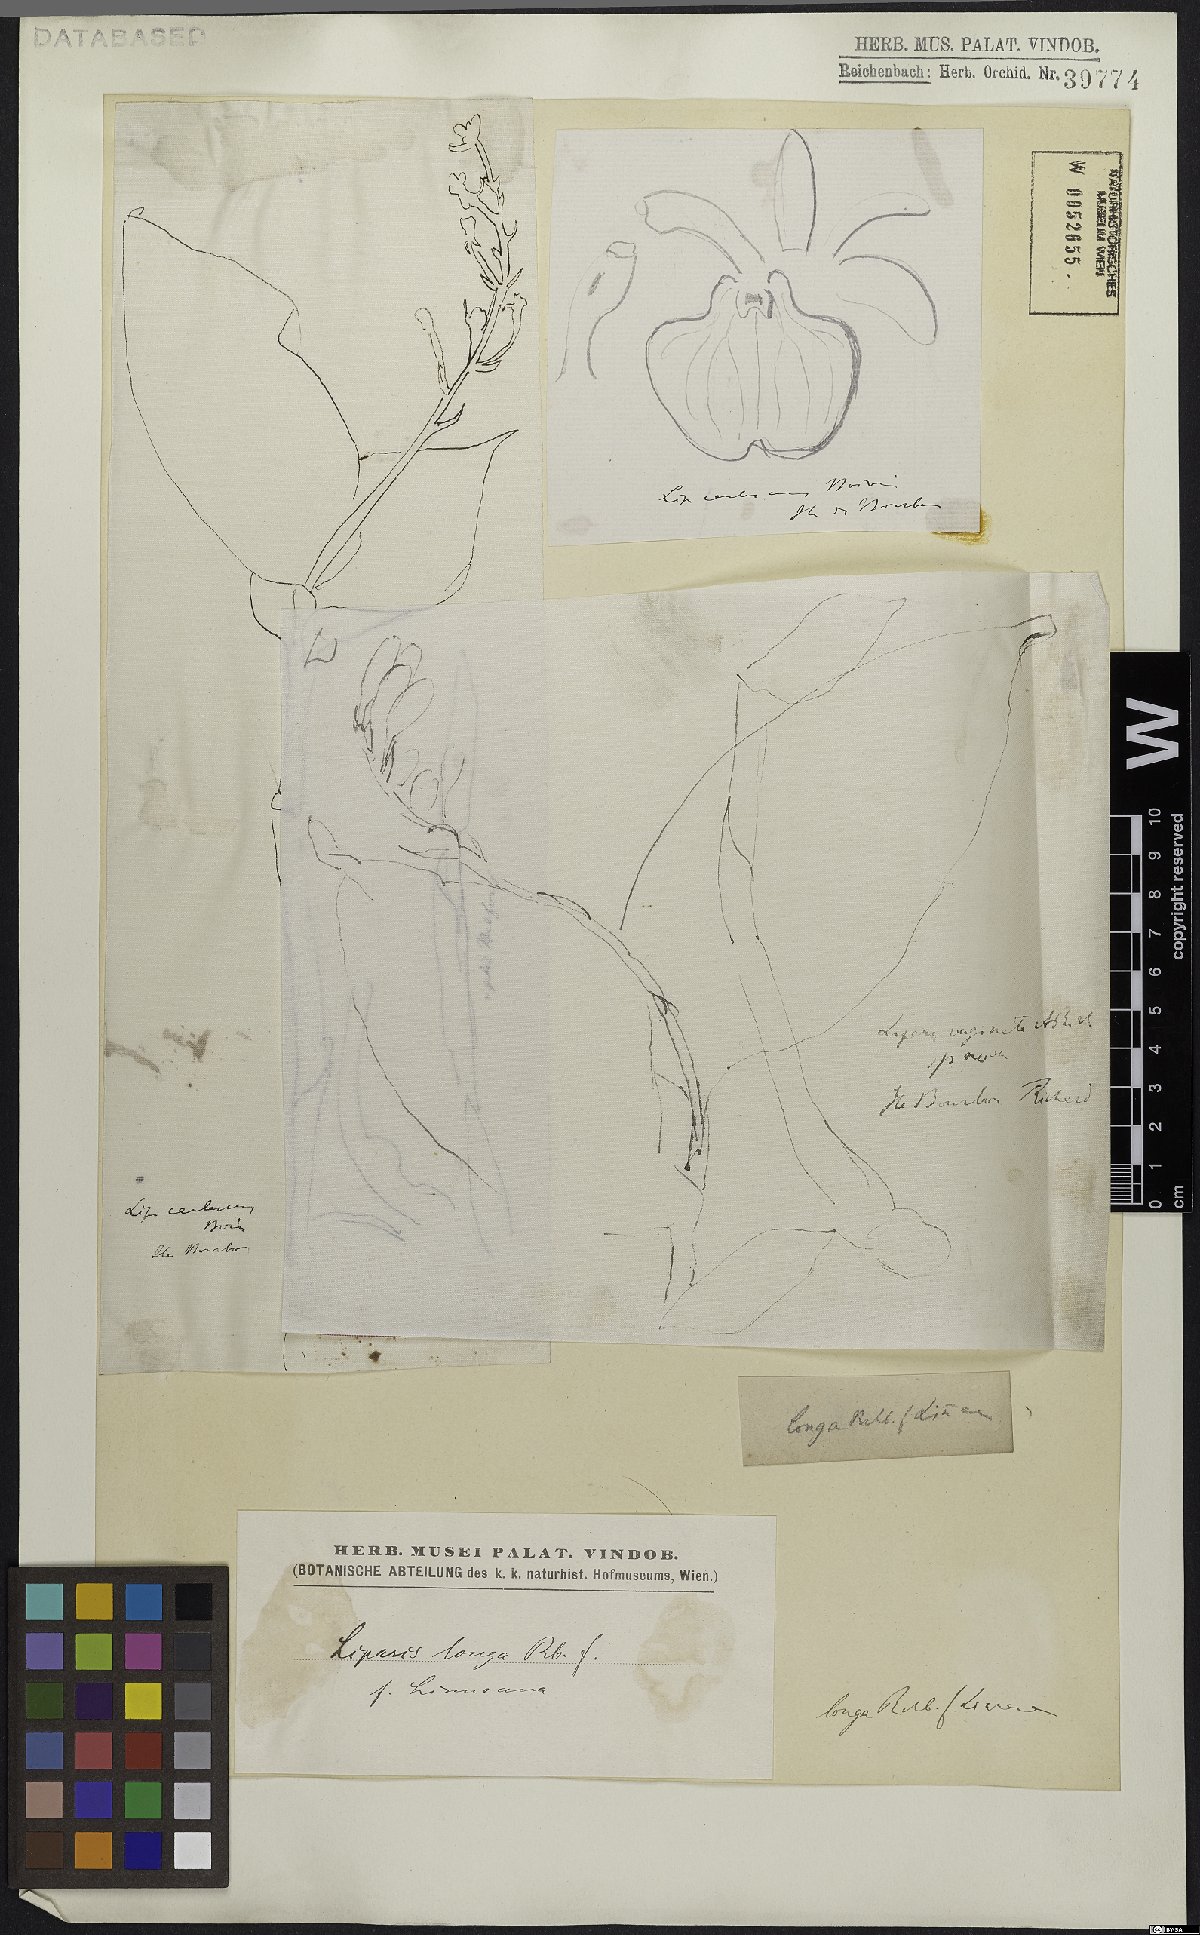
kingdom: Plantae
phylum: Tracheophyta
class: Liliopsida
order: Asparagales
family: Orchidaceae
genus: Liparis
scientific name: Liparis longa
